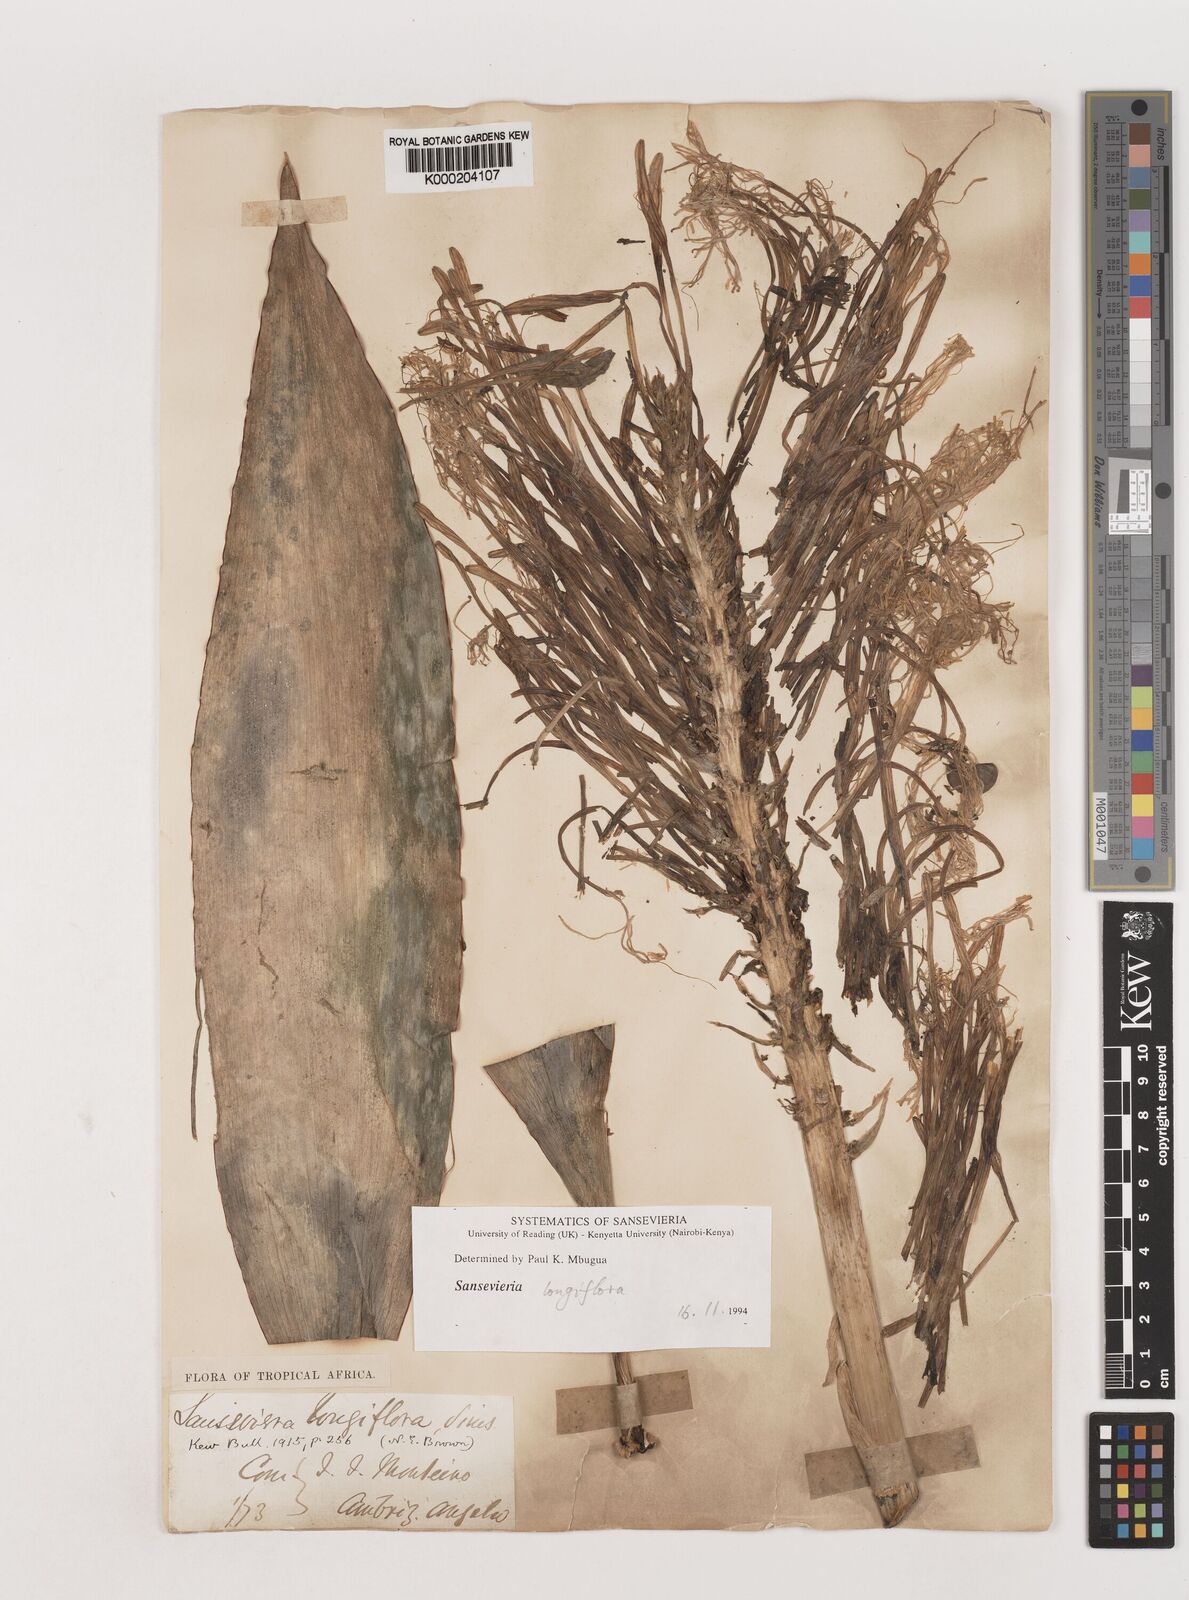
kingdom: Plantae
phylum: Tracheophyta
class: Liliopsida
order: Asparagales
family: Asparagaceae
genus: Dracaena
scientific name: Dracaena longiflora
